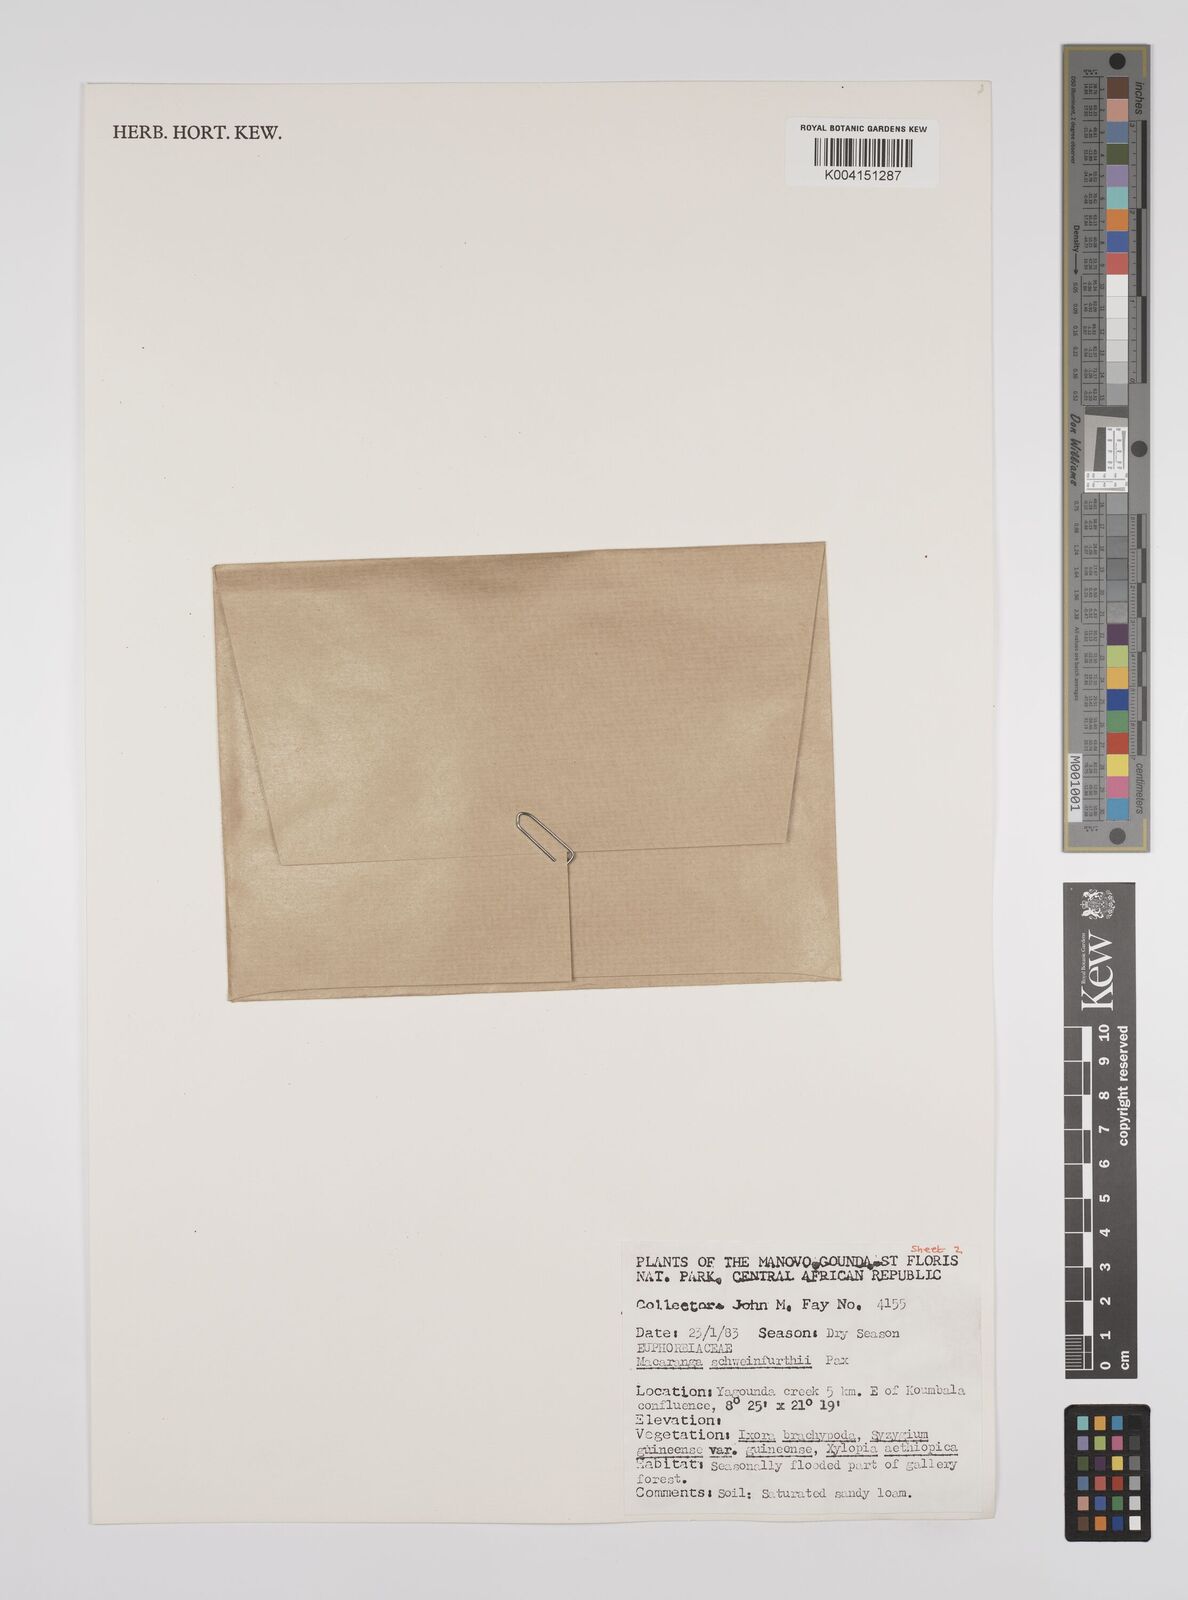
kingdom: Plantae
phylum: Tracheophyta
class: Magnoliopsida
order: Malpighiales
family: Euphorbiaceae
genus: Macaranga
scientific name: Macaranga schweinfurthii
